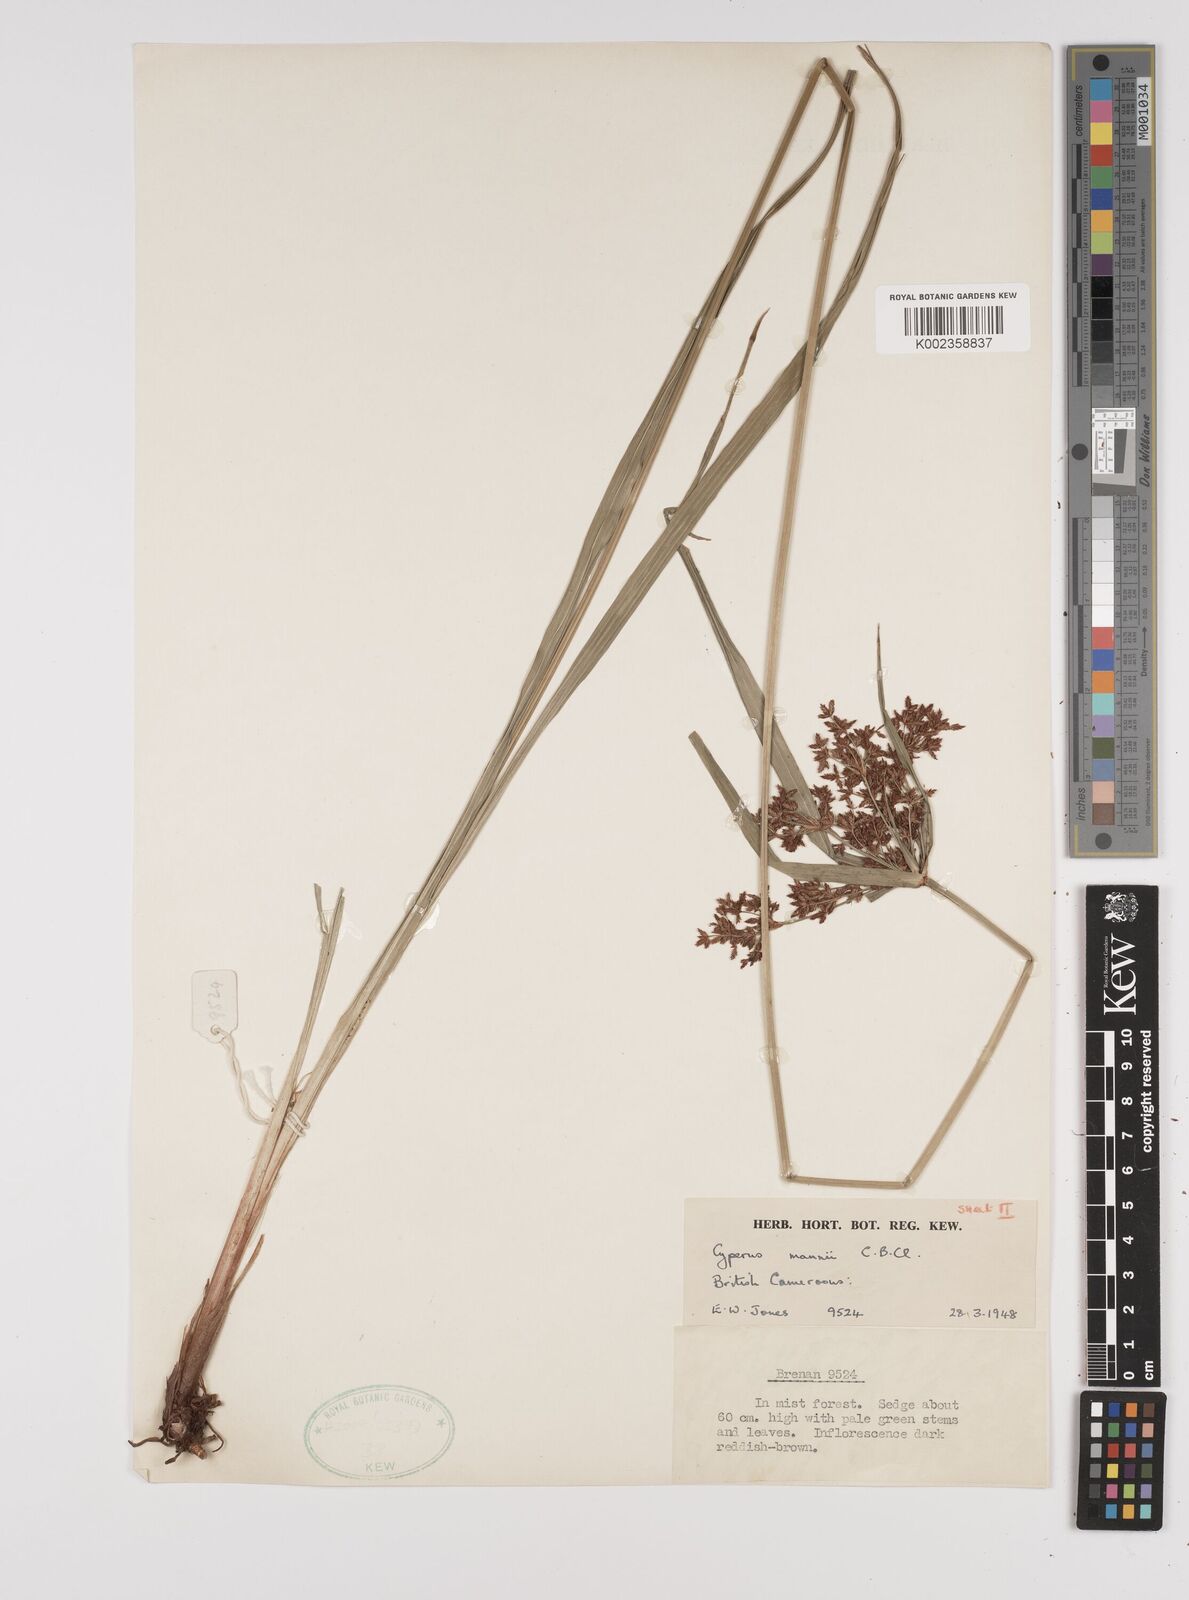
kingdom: Plantae
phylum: Tracheophyta
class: Liliopsida
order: Poales
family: Cyperaceae
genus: Cyperus
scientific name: Cyperus baronii
